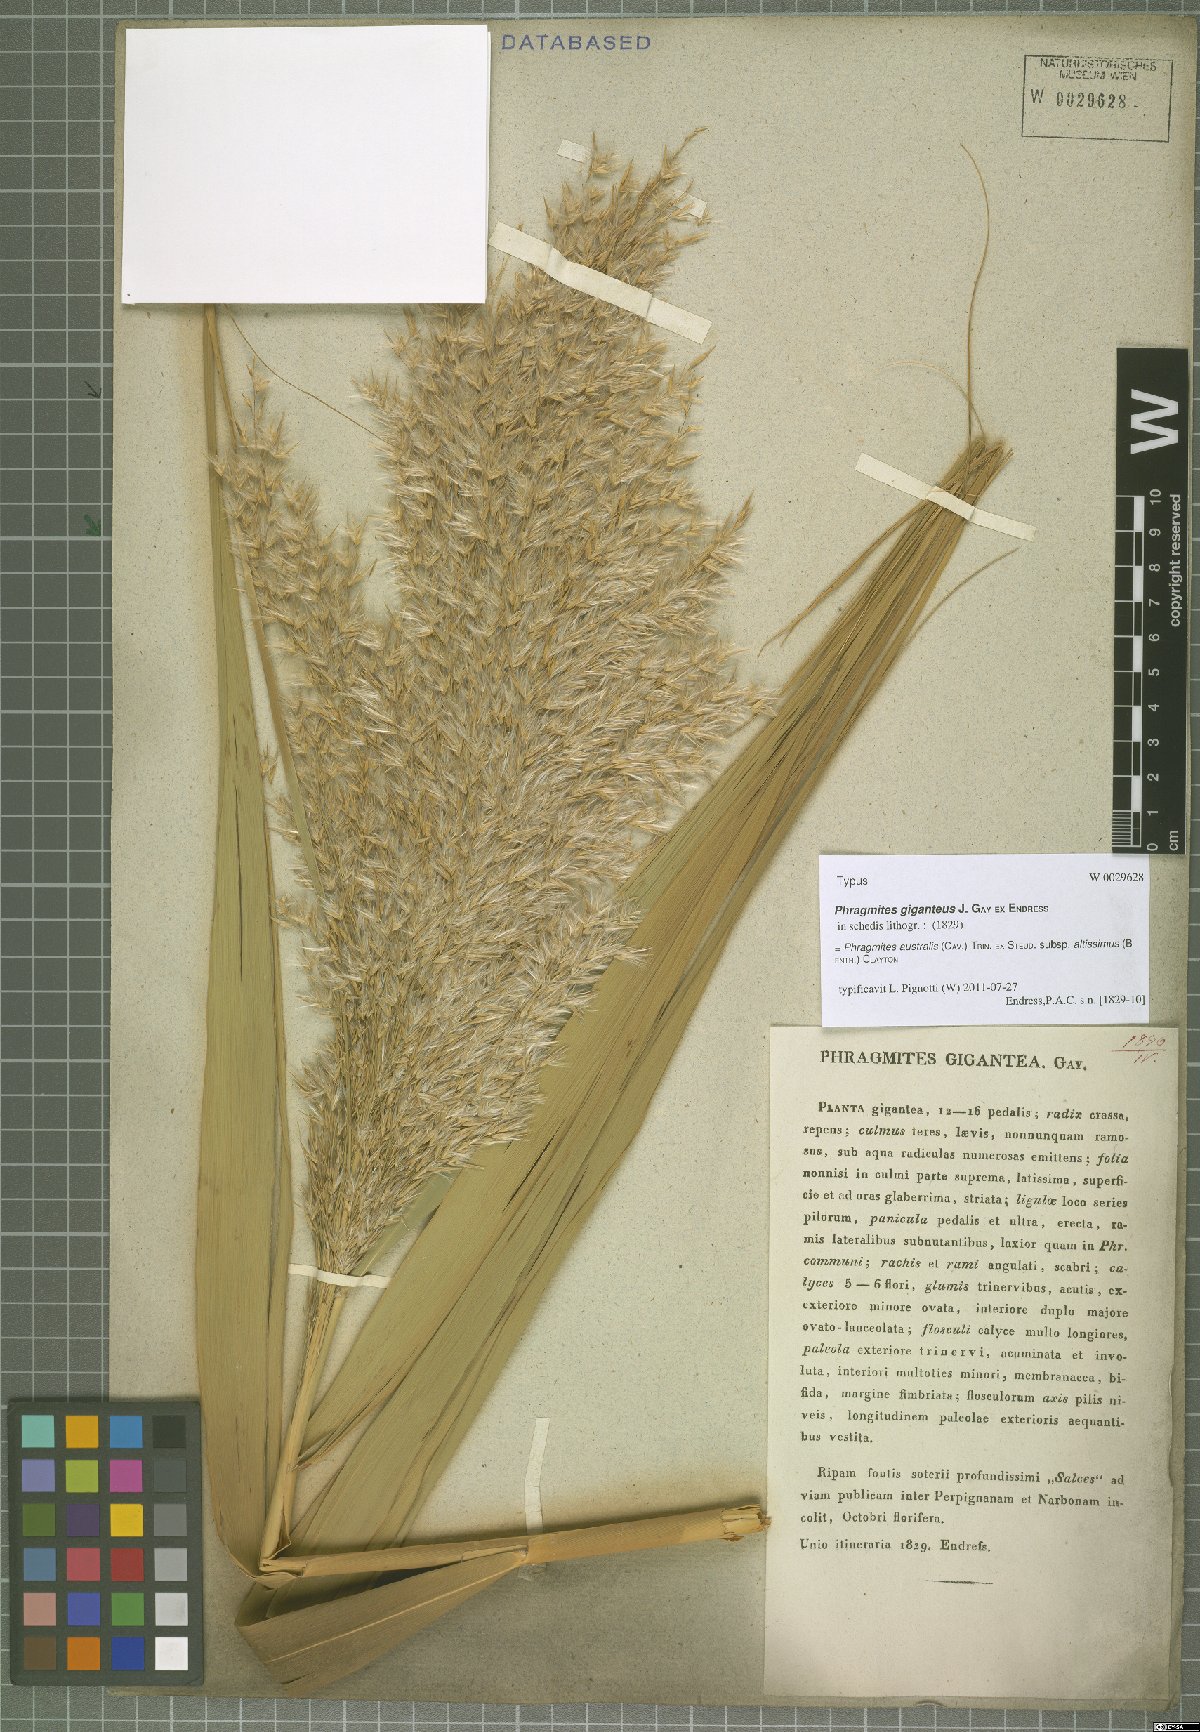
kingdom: Plantae
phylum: Tracheophyta
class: Liliopsida
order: Poales
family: Poaceae
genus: Phragmites
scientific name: Phragmites australis
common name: Common reed
